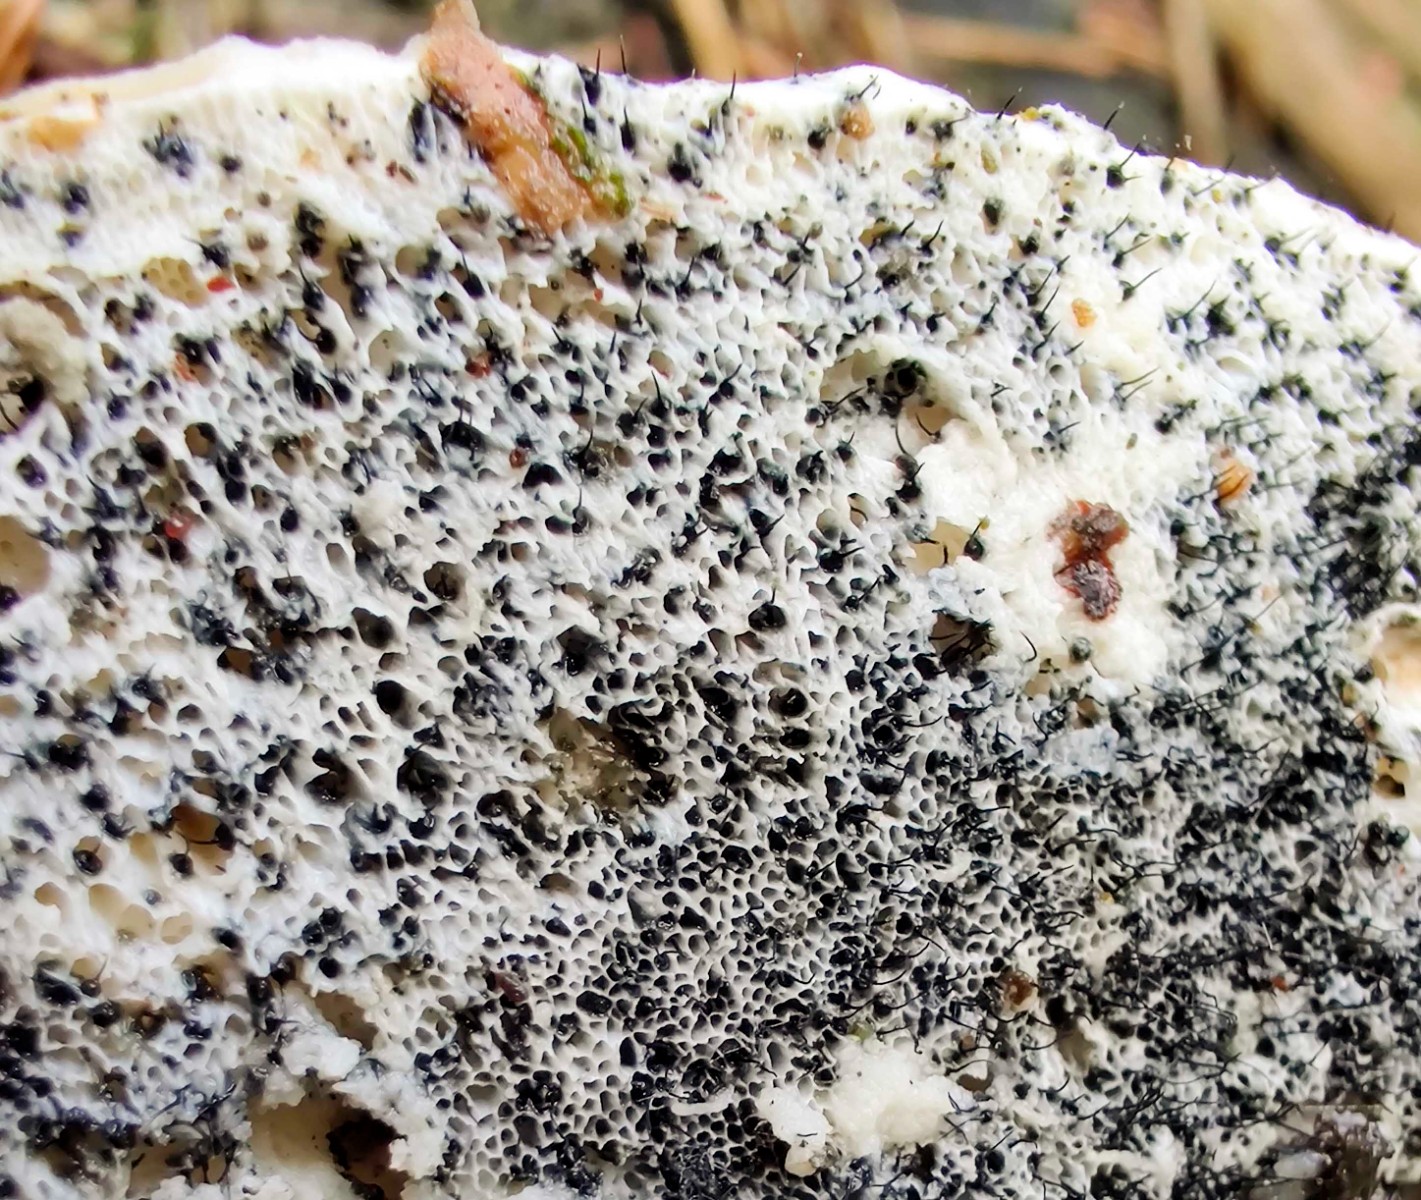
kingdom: Fungi
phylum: Ascomycota
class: Sordariomycetes
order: Ophiostomatales
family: Ophiostomataceae
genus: Sporothrix
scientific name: Sporothrix polyporicola
